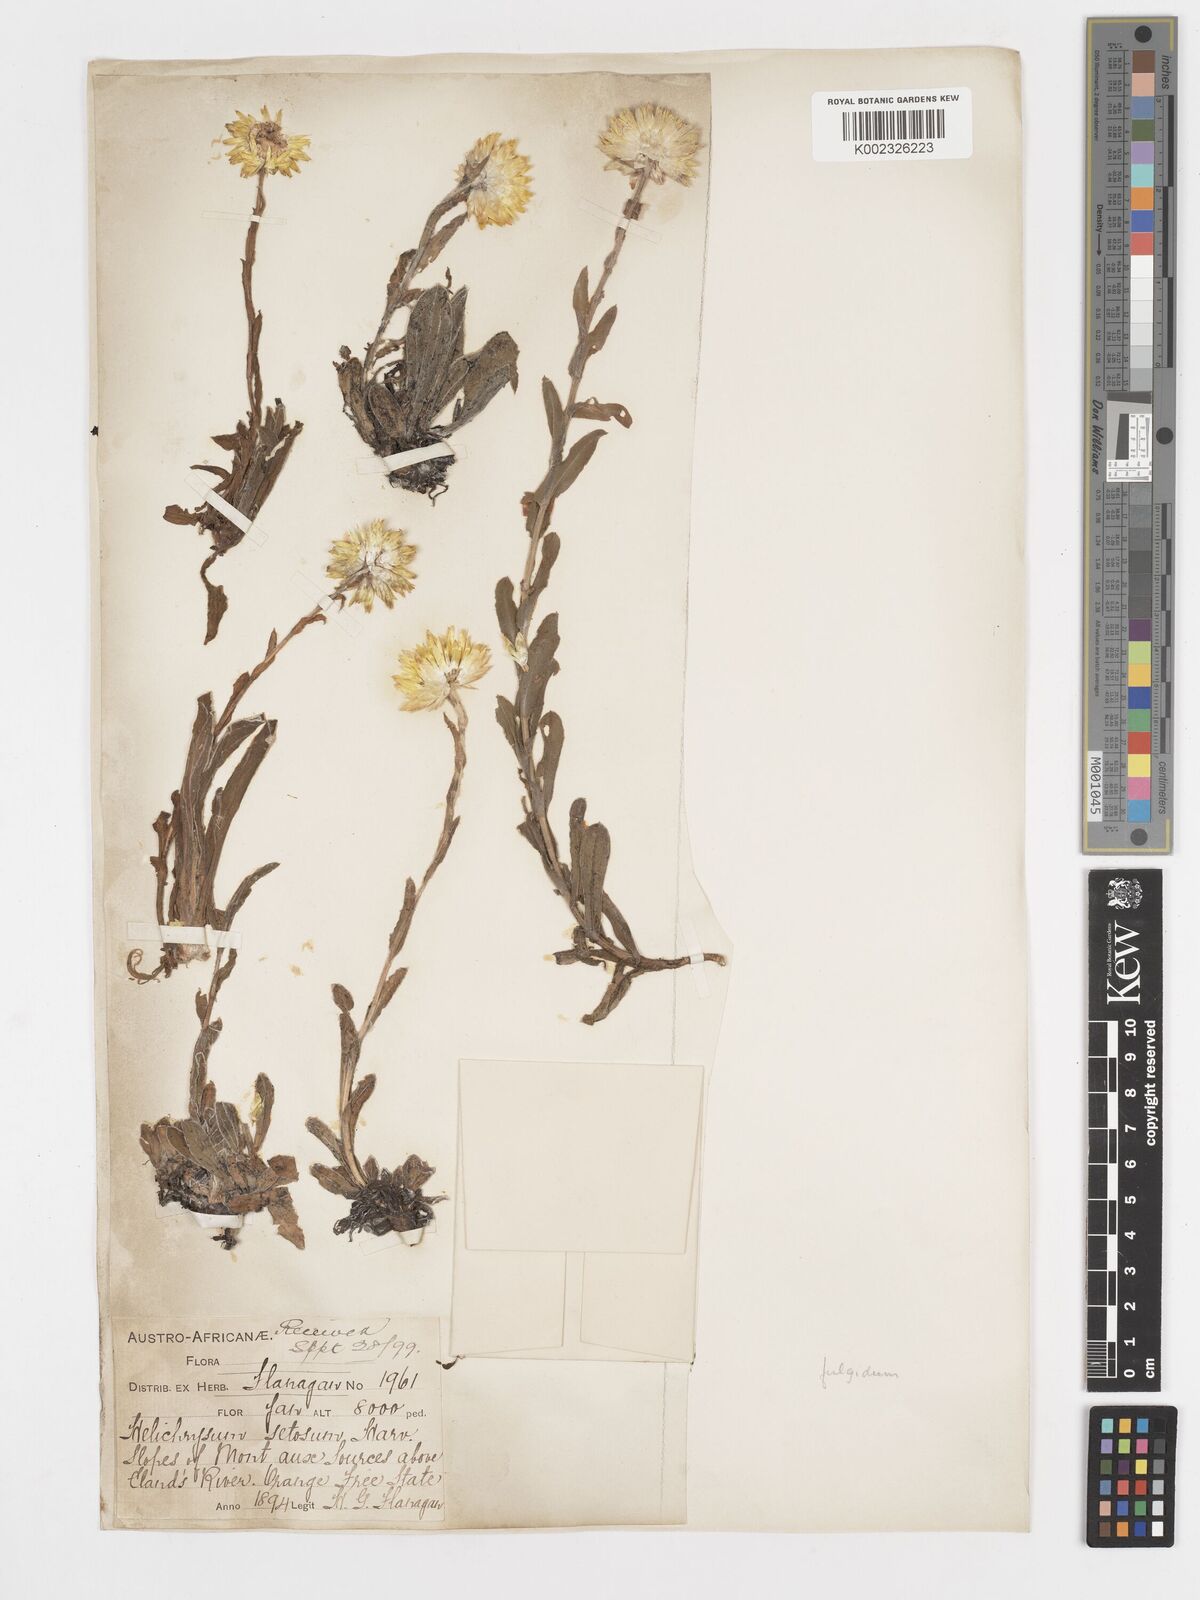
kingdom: Plantae
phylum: Tracheophyta
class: Magnoliopsida
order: Asterales
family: Asteraceae
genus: Helichrysum
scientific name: Helichrysum aureum
